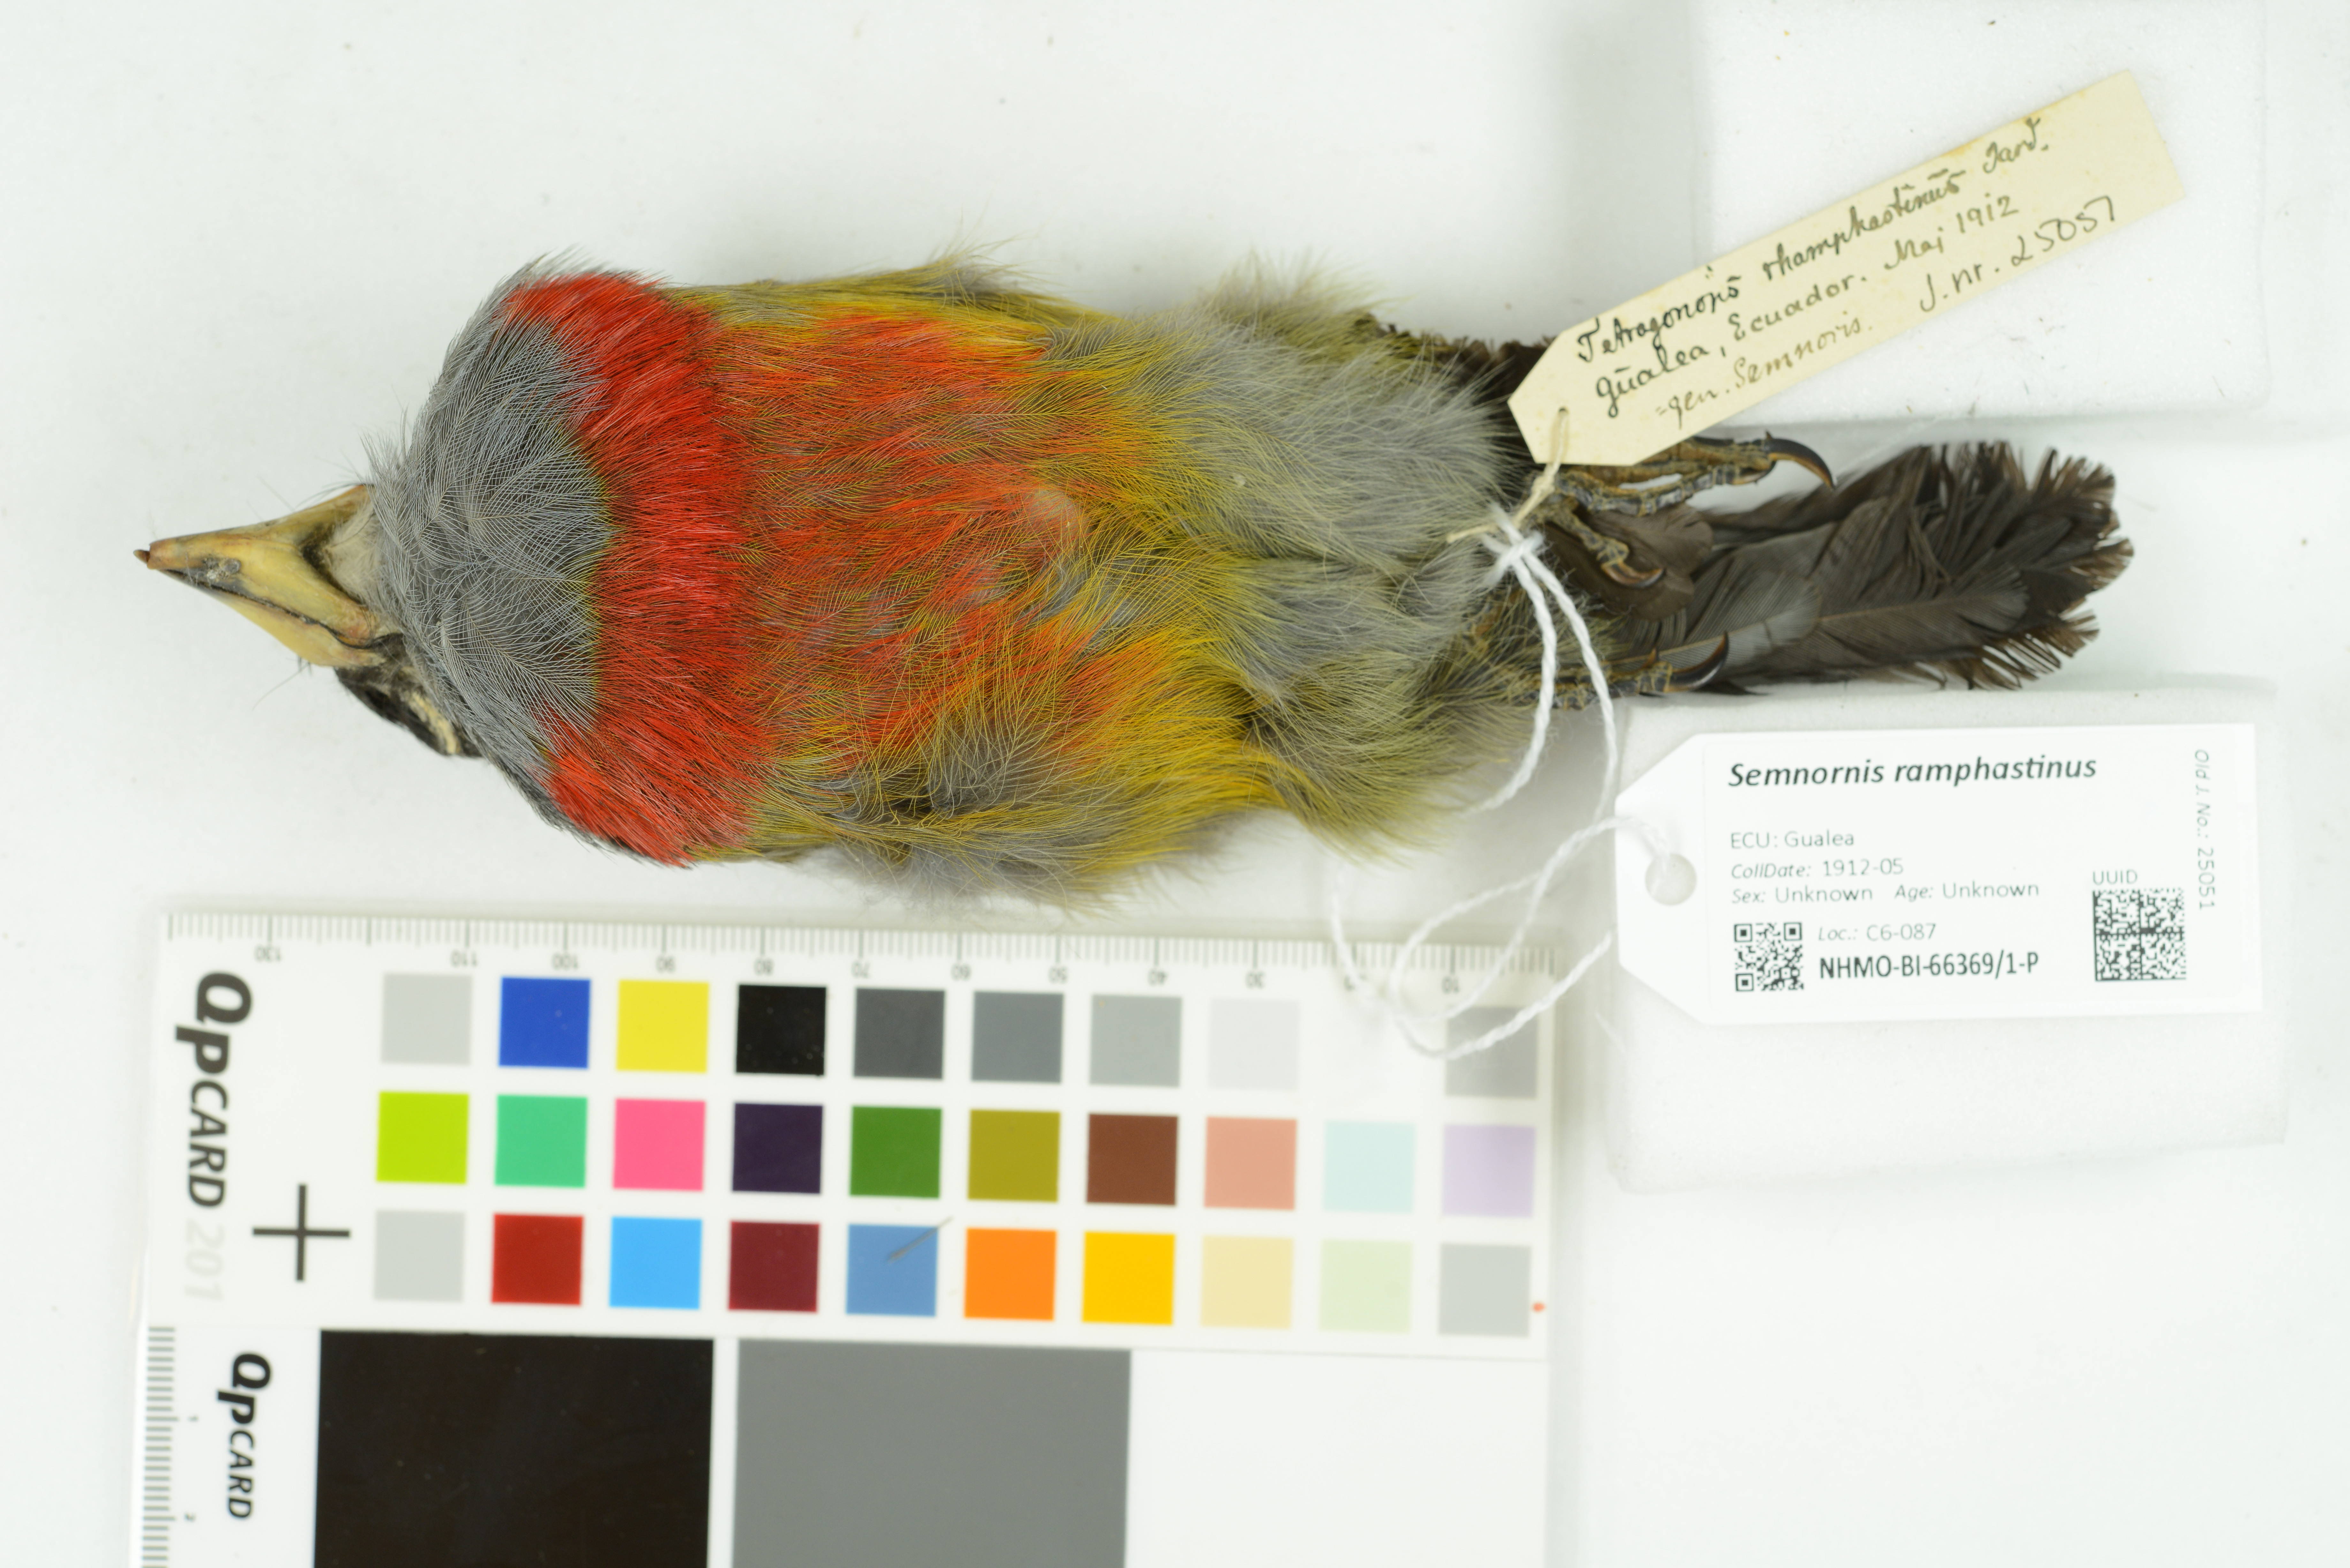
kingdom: Animalia
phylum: Chordata
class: Aves
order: Piciformes
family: Semnornithidae
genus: Semnornis
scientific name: Semnornis ramphastinus
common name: Toucan barbet
